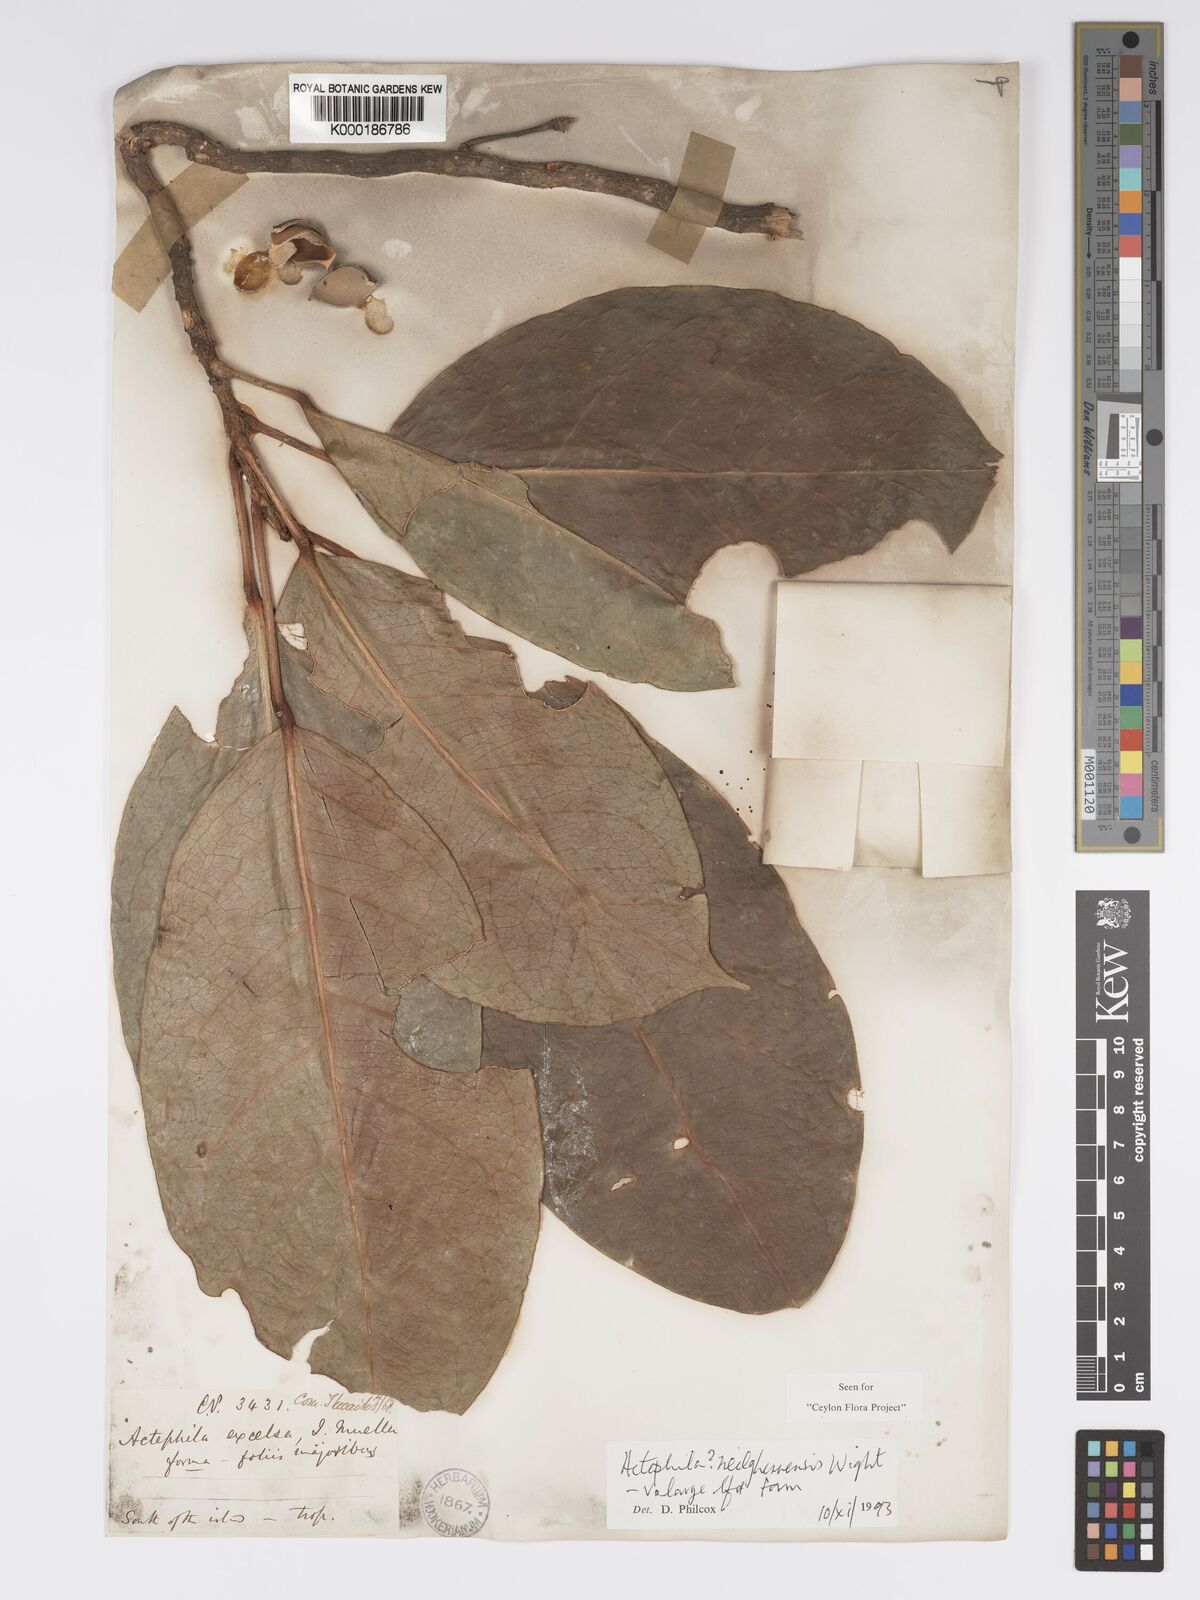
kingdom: Plantae
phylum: Tracheophyta
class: Magnoliopsida
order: Malpighiales
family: Phyllanthaceae
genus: Actephila
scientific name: Actephila excelsa
